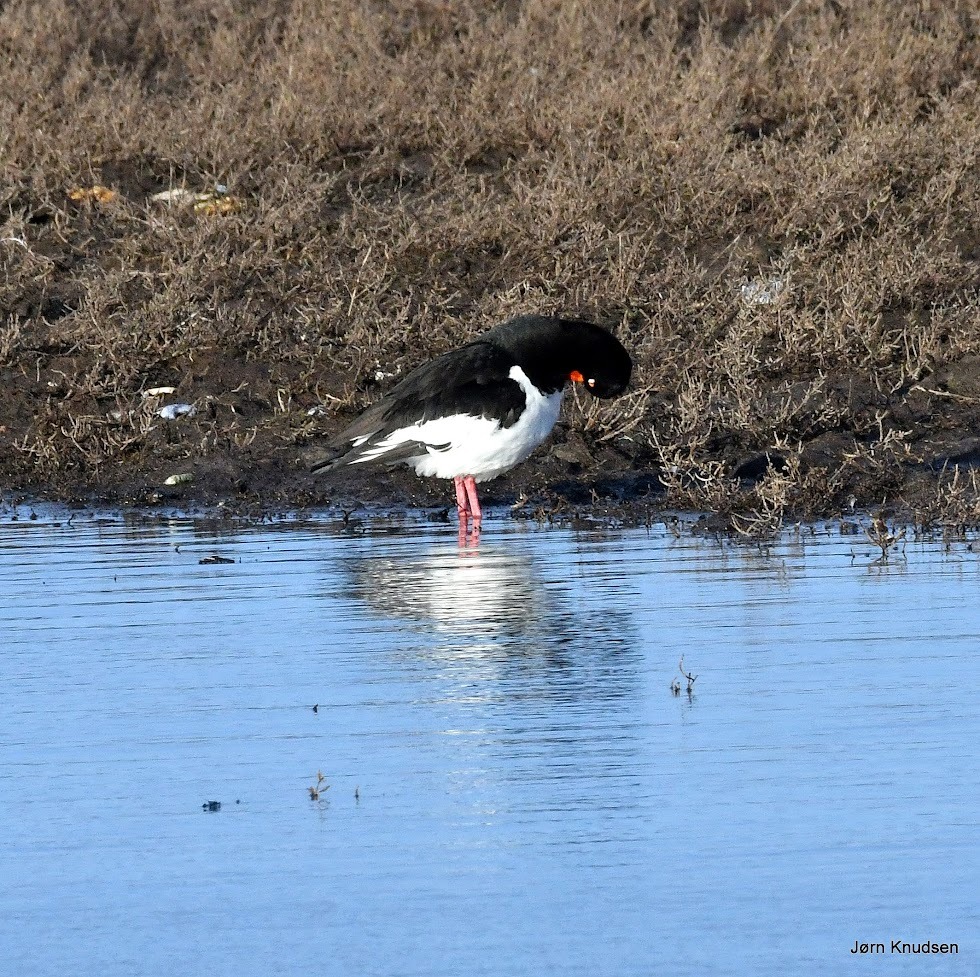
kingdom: Animalia
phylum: Chordata
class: Aves
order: Charadriiformes
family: Haematopodidae
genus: Haematopus
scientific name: Haematopus ostralegus
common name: Strandskade
